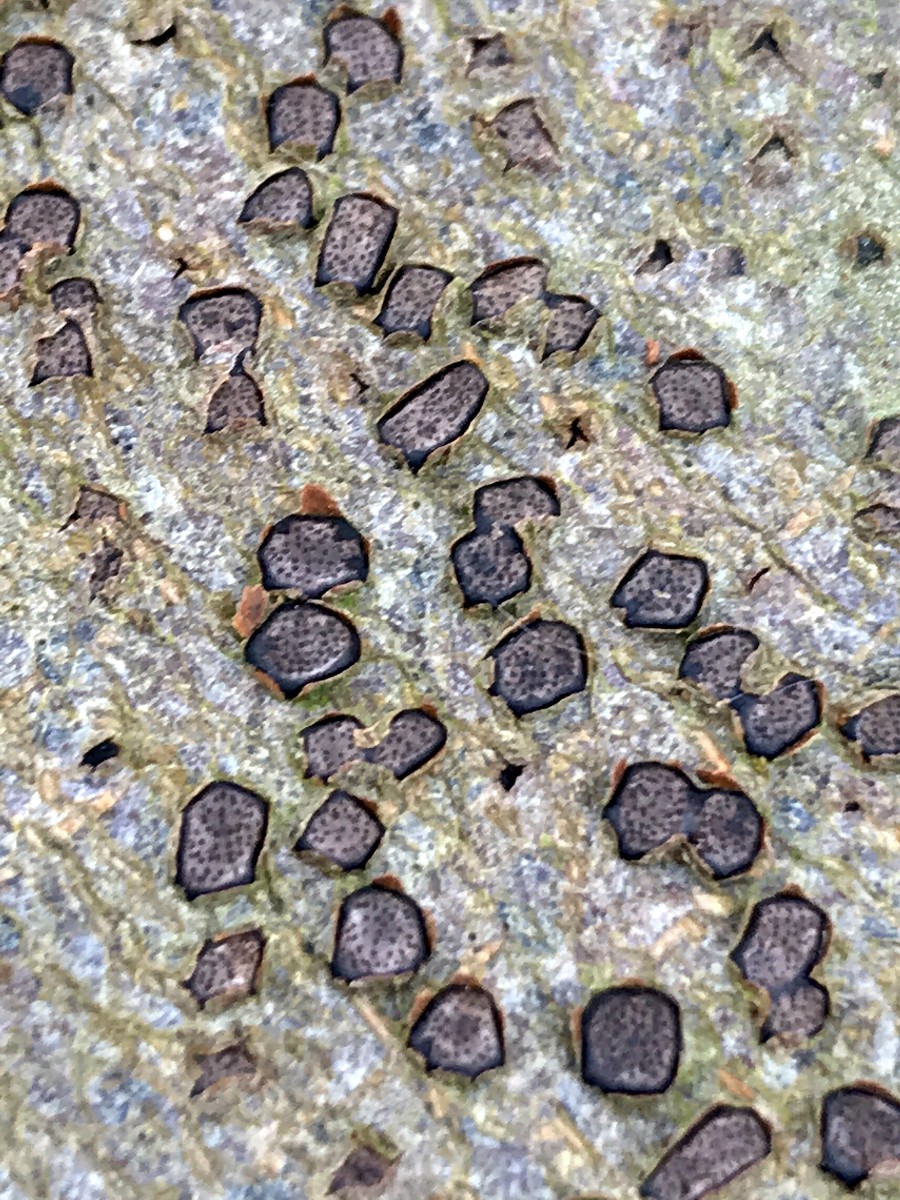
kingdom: Fungi
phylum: Ascomycota
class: Sordariomycetes
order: Xylariales
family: Diatrypaceae
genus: Diatrype
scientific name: Diatrype disciformis
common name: kant-kulskorpe
